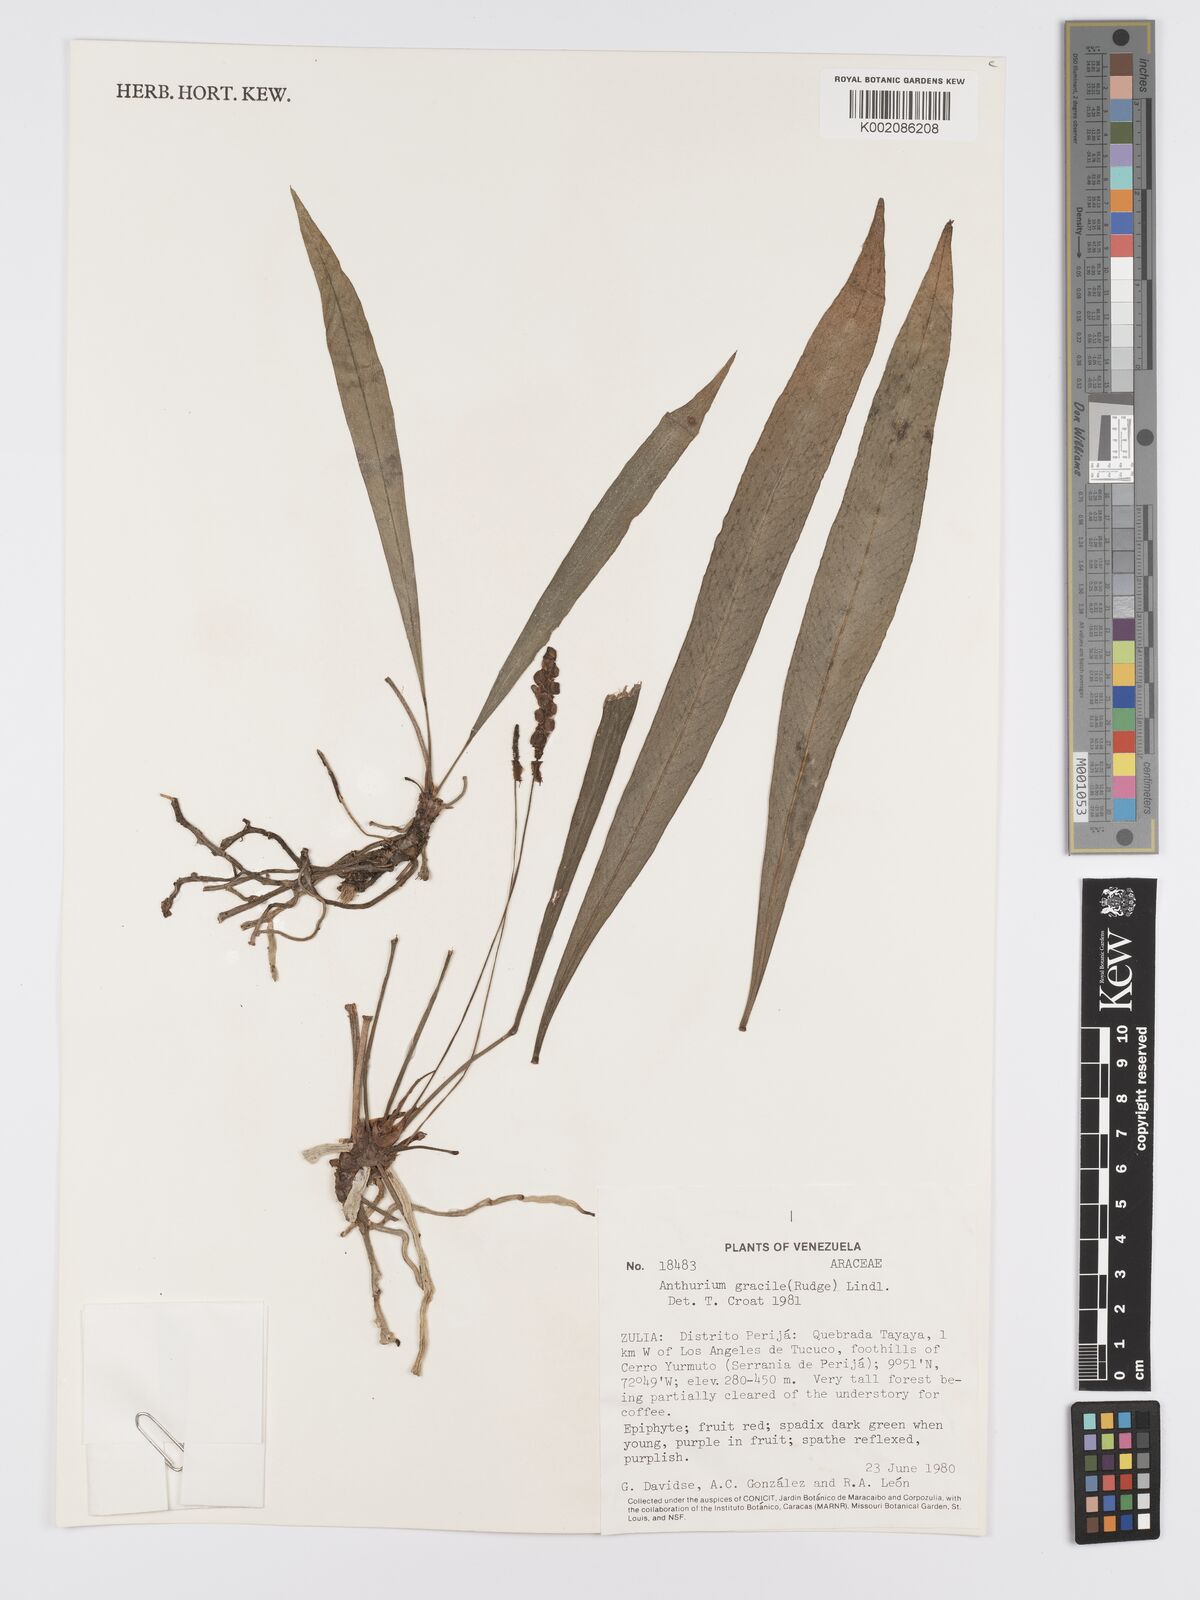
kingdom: Plantae
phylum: Tracheophyta
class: Liliopsida
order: Alismatales
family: Araceae
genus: Anthurium
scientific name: Anthurium gracile
